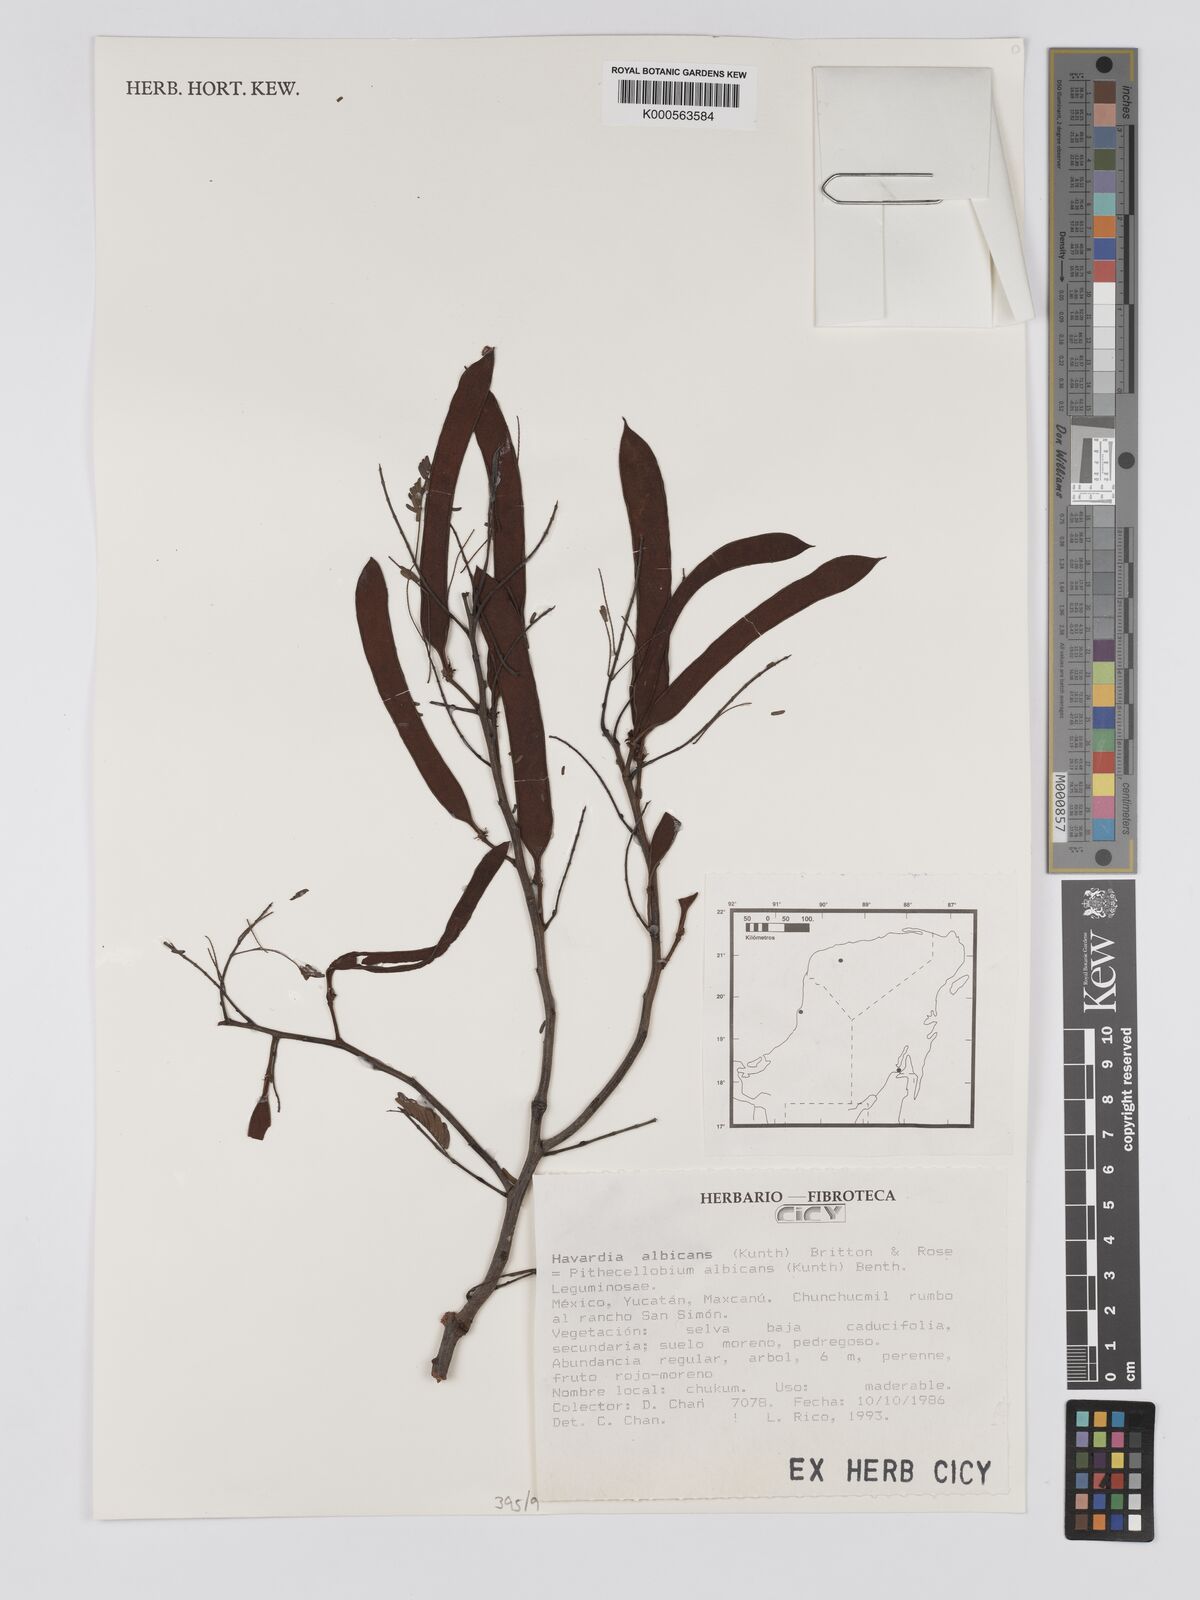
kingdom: Plantae
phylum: Tracheophyta
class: Magnoliopsida
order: Fabales
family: Fabaceae
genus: Havardia
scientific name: Havardia albicans
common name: Huisache
